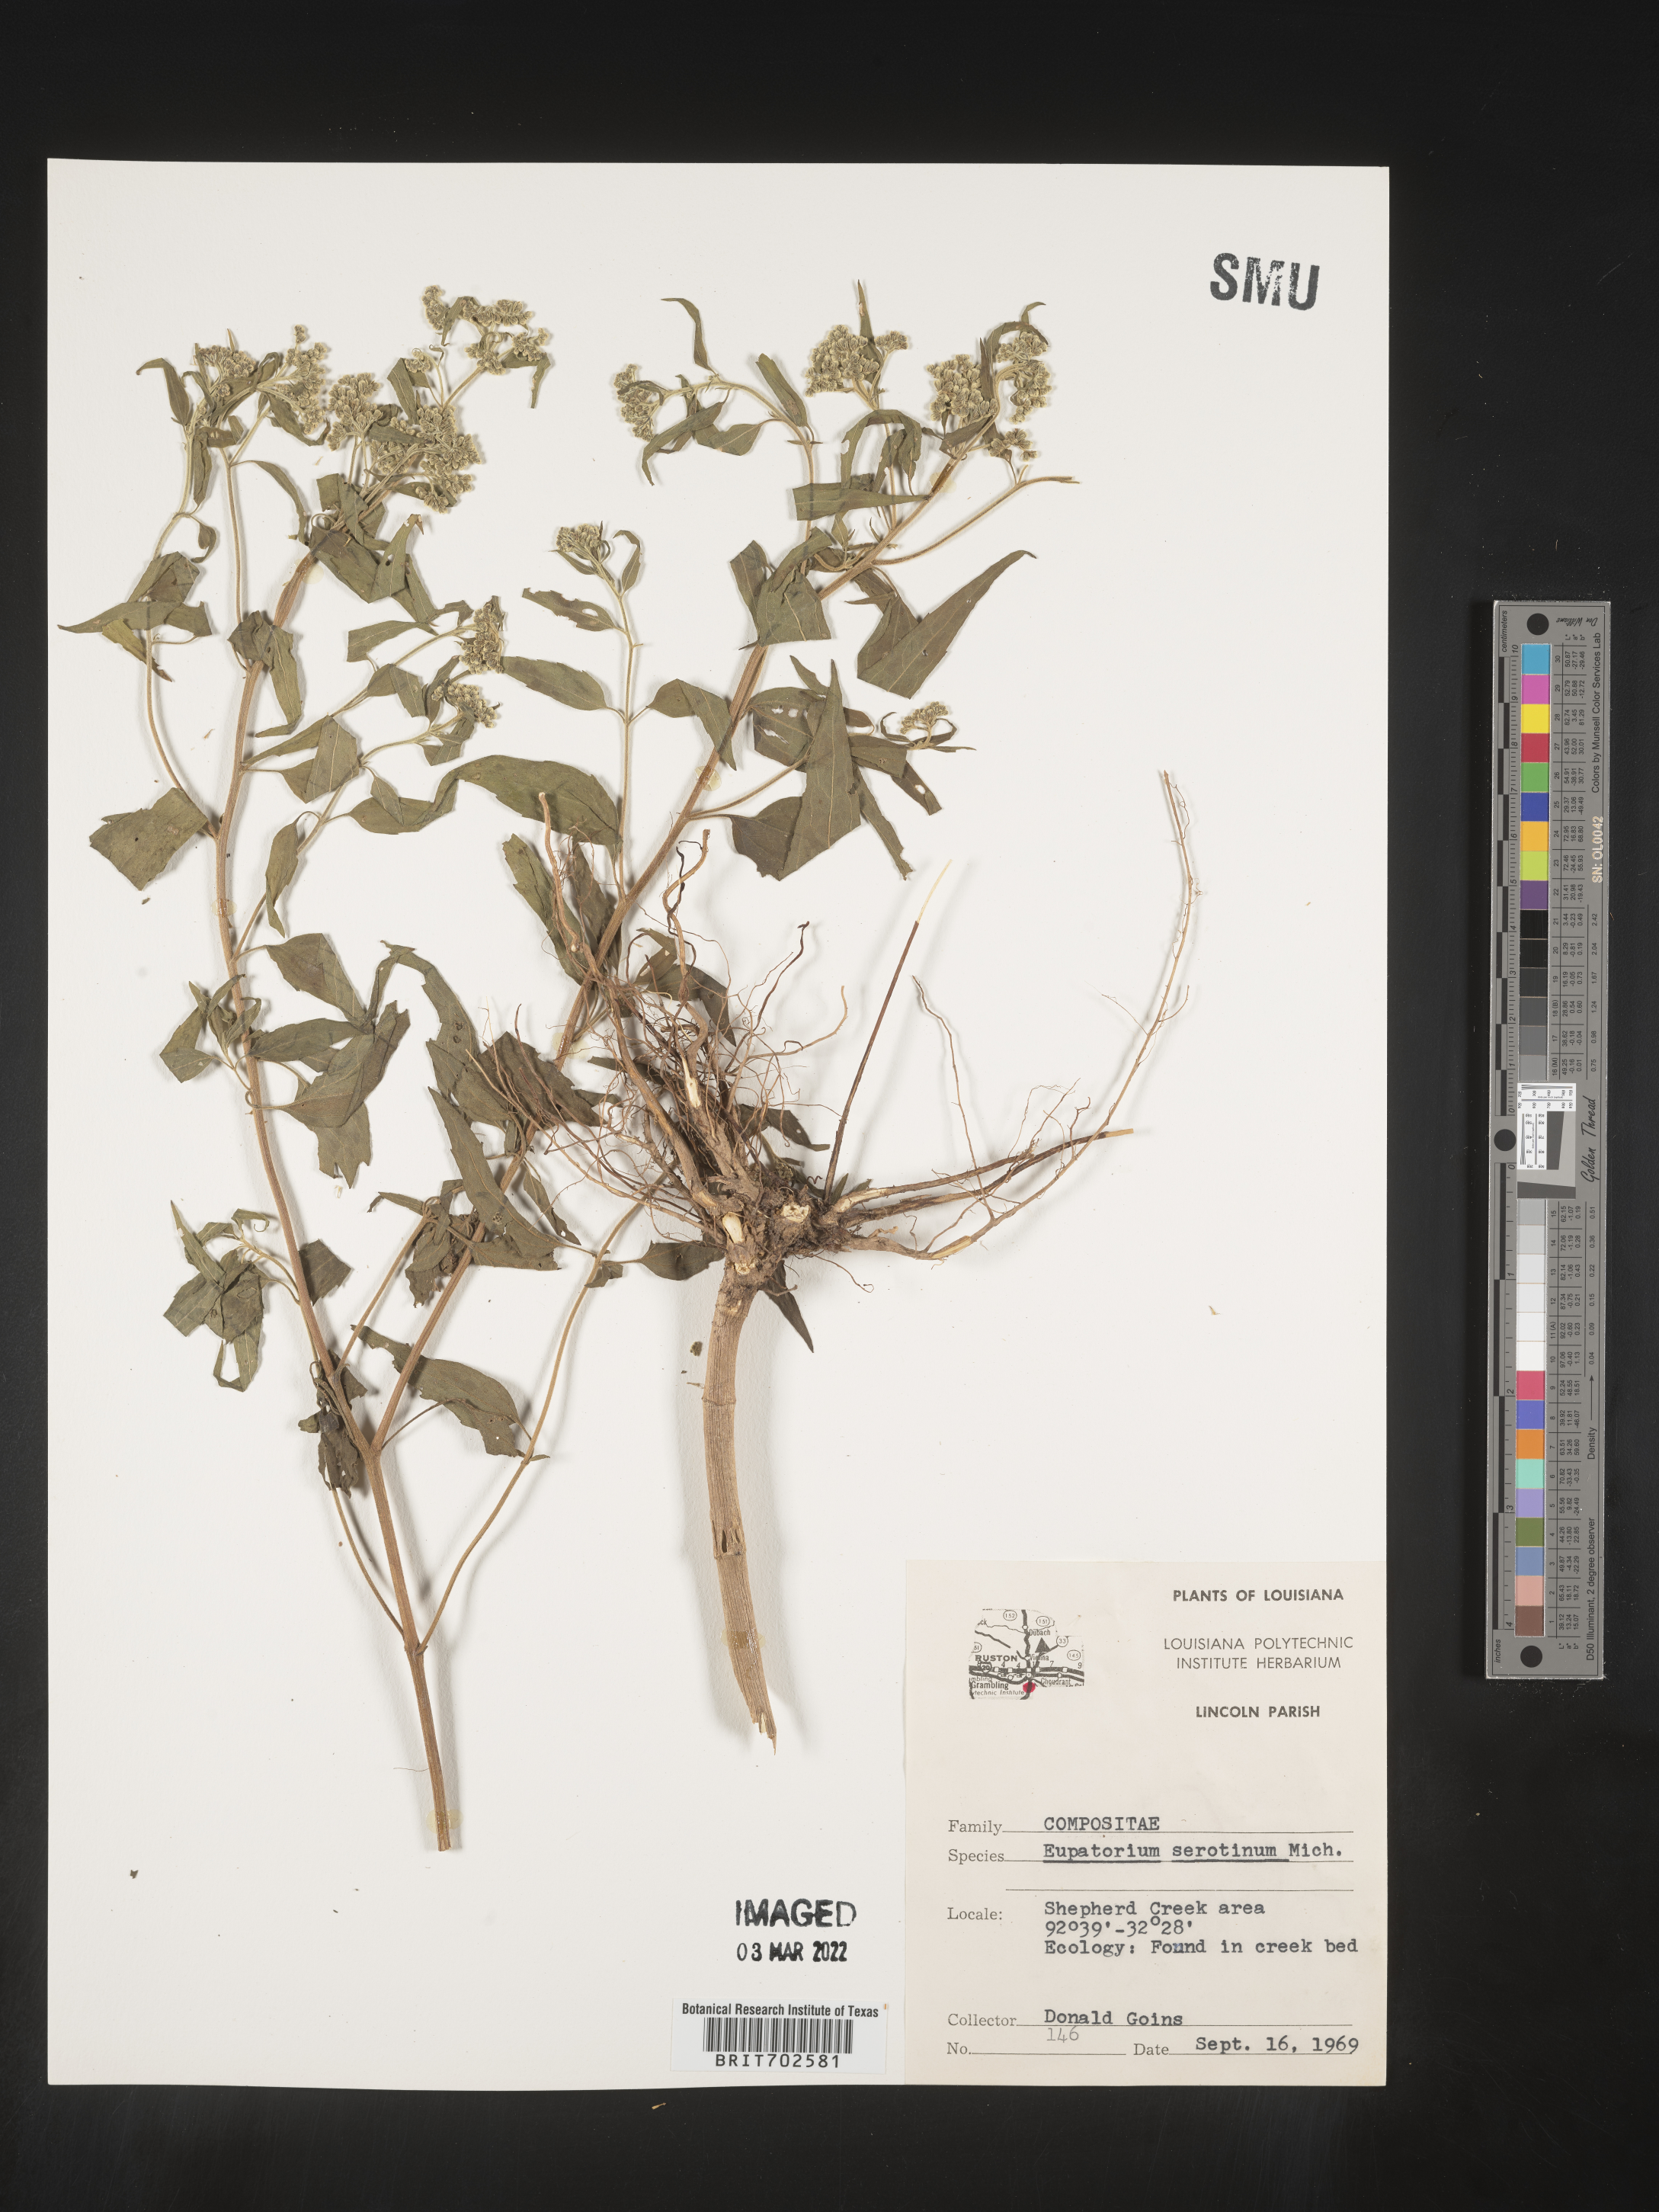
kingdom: Plantae
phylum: Tracheophyta
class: Magnoliopsida
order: Asterales
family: Asteraceae
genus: Eupatorium
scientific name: Eupatorium serotinum
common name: Late boneset
